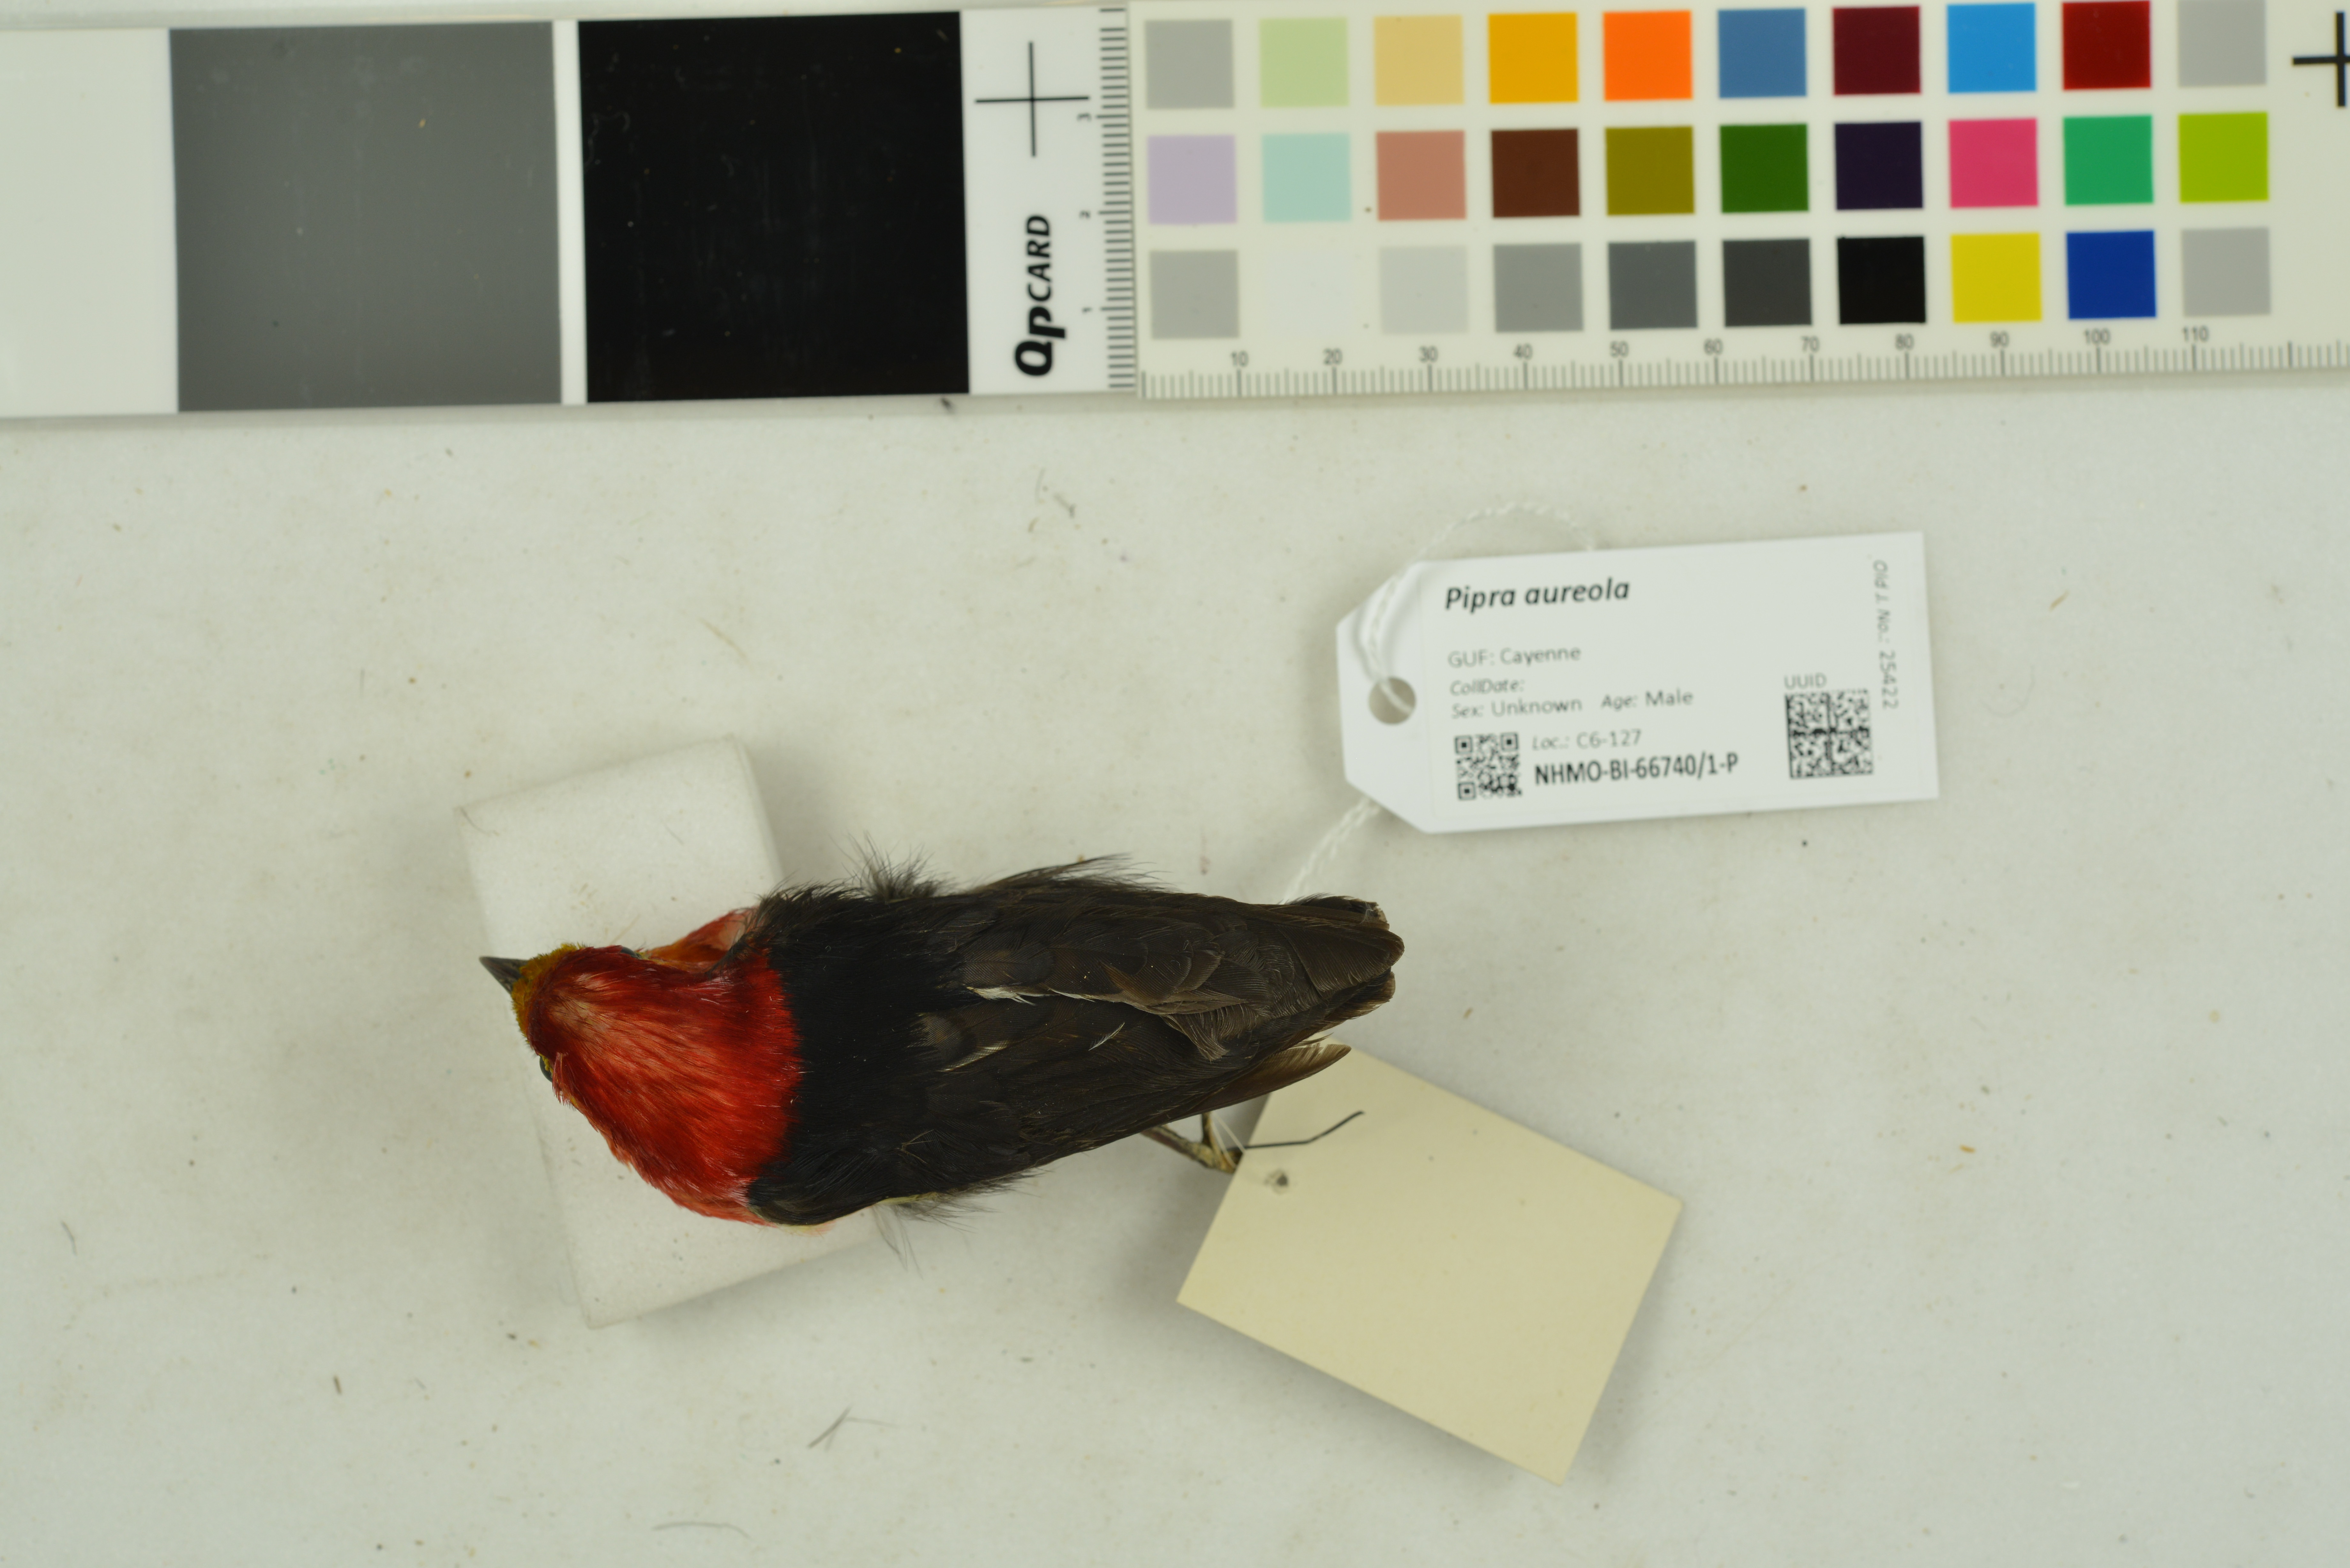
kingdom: Animalia
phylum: Chordata
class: Aves
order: Passeriformes
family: Pipridae
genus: Pipra
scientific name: Pipra aureola
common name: Crimson-hooded manakin
